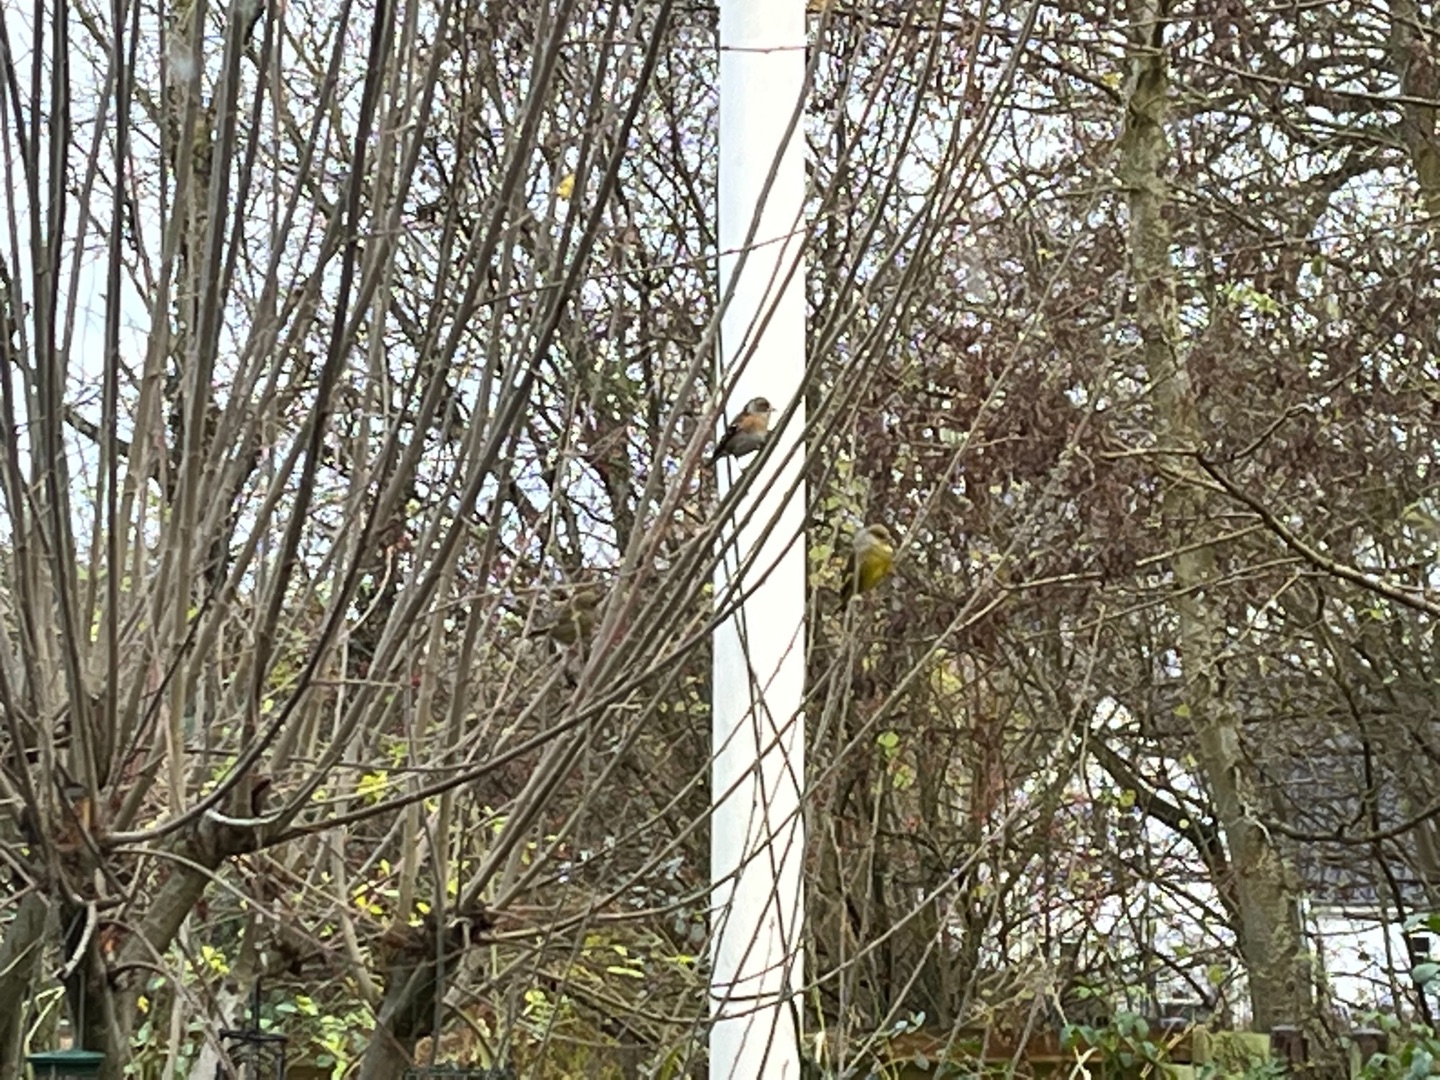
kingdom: Animalia
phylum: Chordata
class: Aves
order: Passeriformes
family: Fringillidae
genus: Fringilla
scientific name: Fringilla montifringilla
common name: Kvækerfinke
